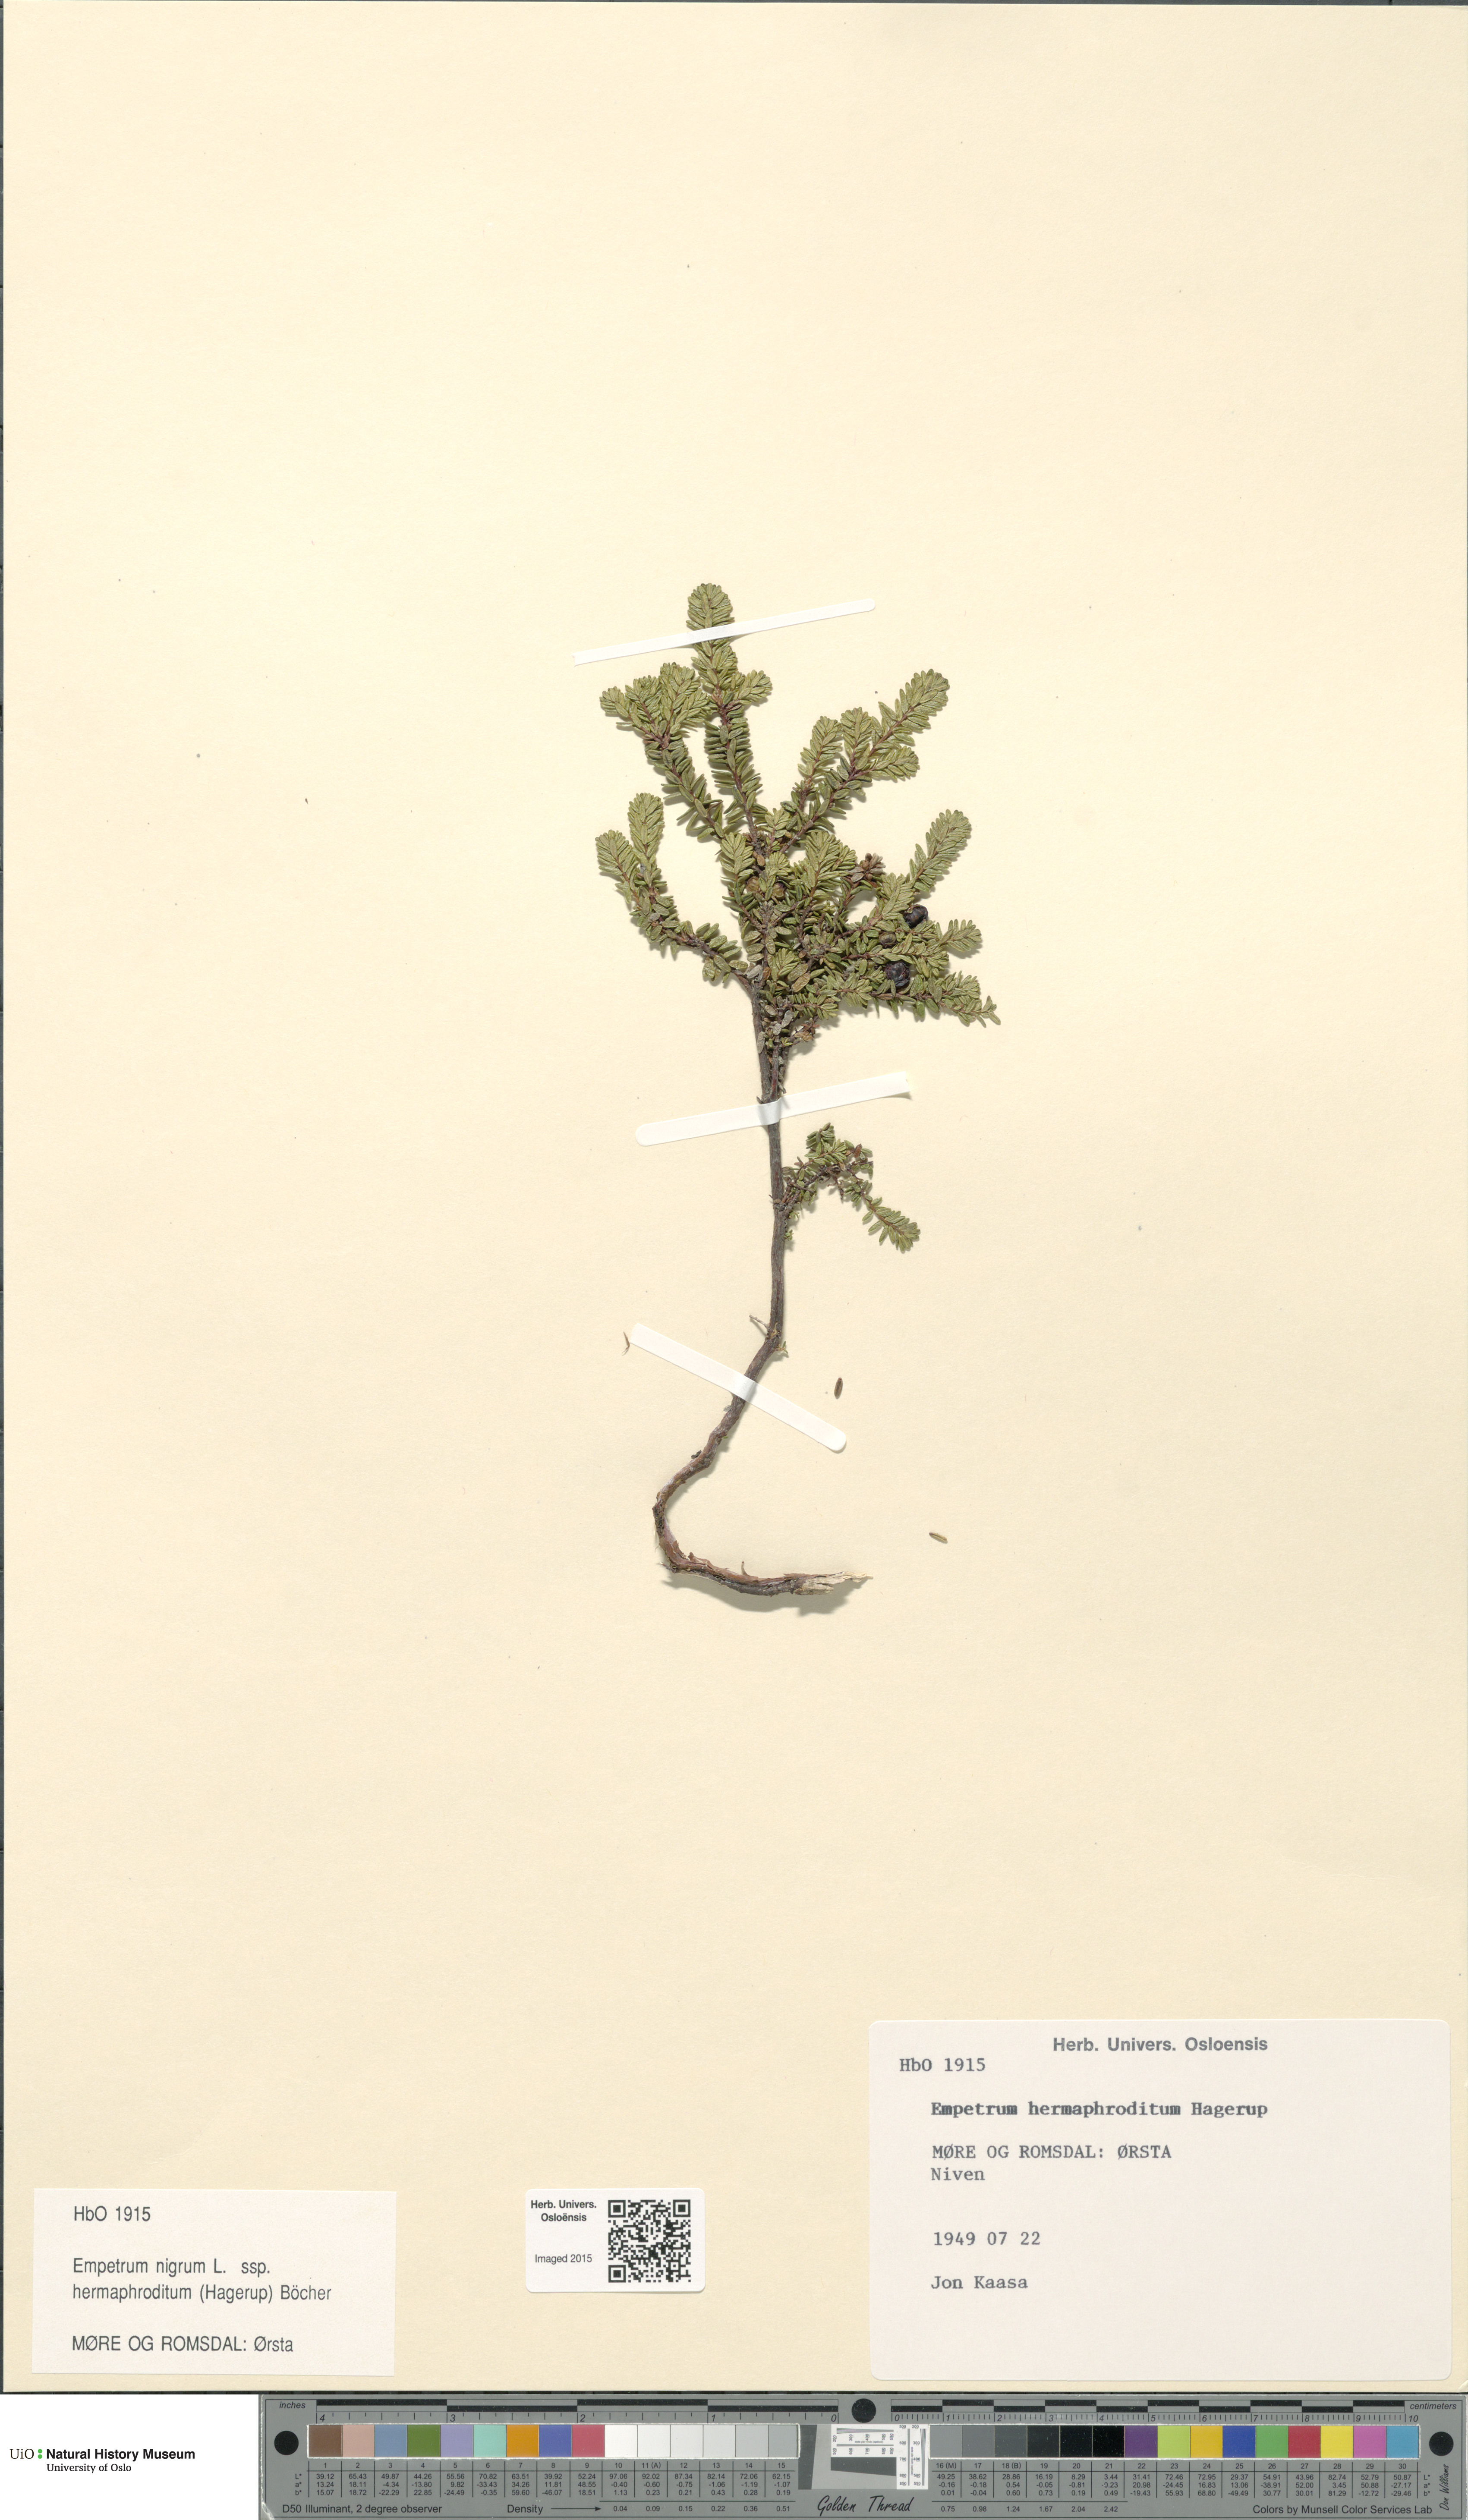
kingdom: Plantae
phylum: Tracheophyta
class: Magnoliopsida
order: Ericales
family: Ericaceae
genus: Empetrum
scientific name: Empetrum hermaphroditum
